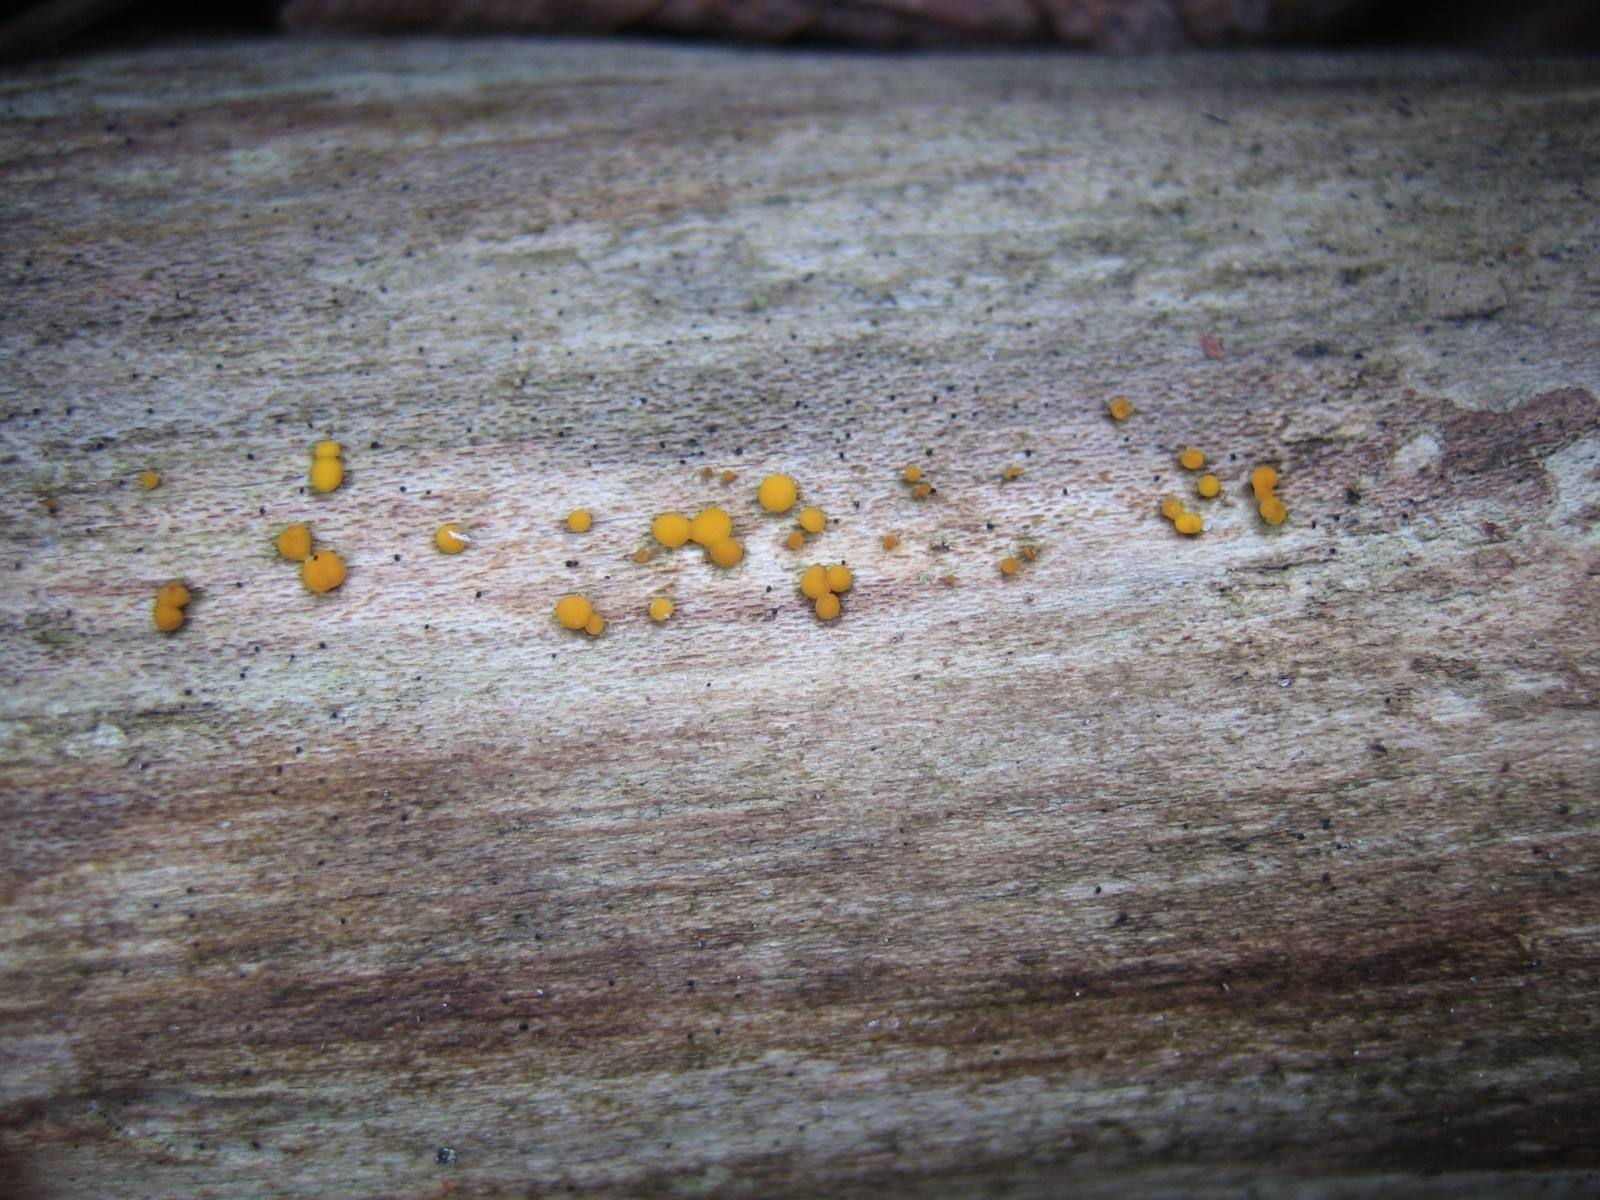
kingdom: Fungi
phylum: Ascomycota
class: Leotiomycetes
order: Helotiales
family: Pezizellaceae
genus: Calycina
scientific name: Calycina citrina
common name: almindelig gulskive
